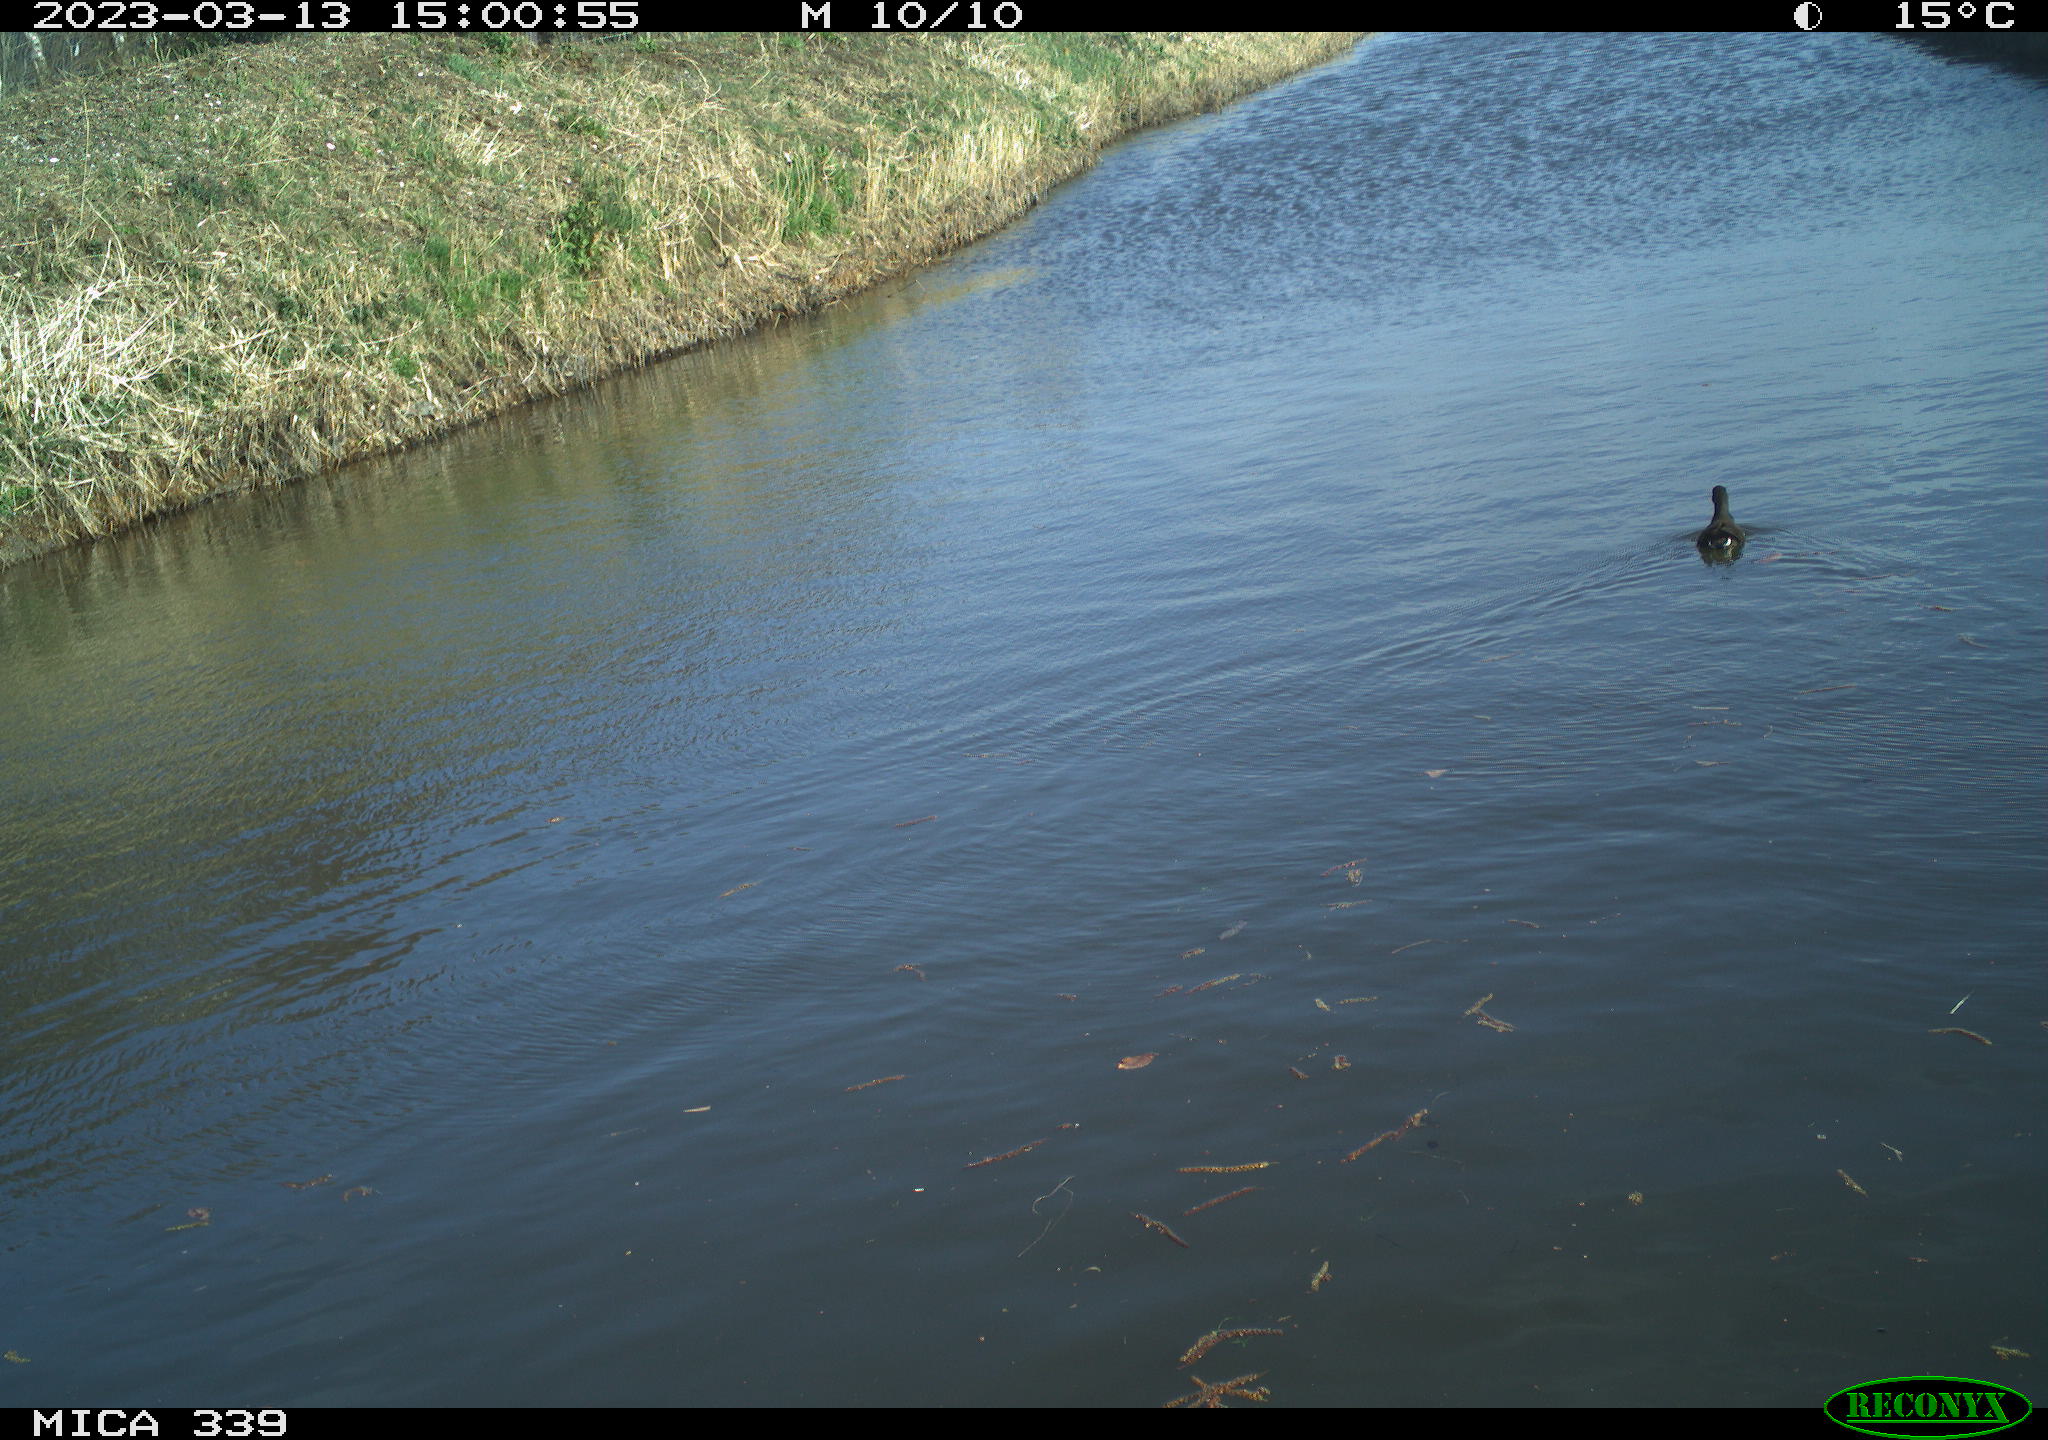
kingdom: Animalia
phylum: Chordata
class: Aves
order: Gruiformes
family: Rallidae
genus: Fulica
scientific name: Fulica atra
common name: Eurasian coot
